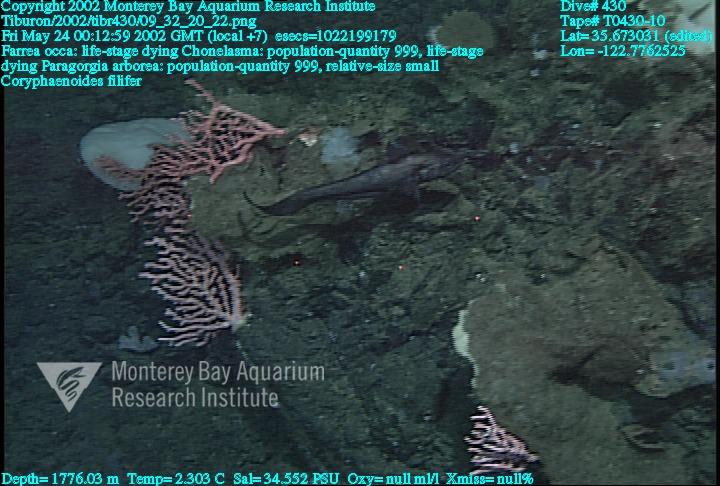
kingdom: Animalia
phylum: Porifera
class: Hexactinellida
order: Sceptrulophora
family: Farreidae
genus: Farrea
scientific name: Farrea occa
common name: Reversed glass sponge
